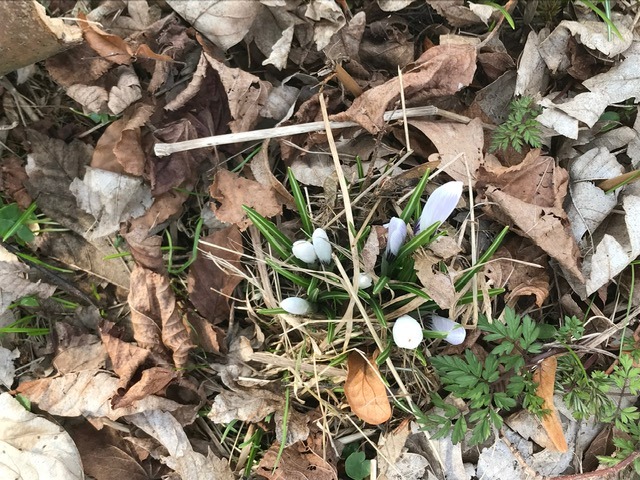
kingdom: Plantae
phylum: Tracheophyta
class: Liliopsida
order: Asparagales
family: Iridaceae
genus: Crocus
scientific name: Crocus vernus
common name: Vår-krokus
